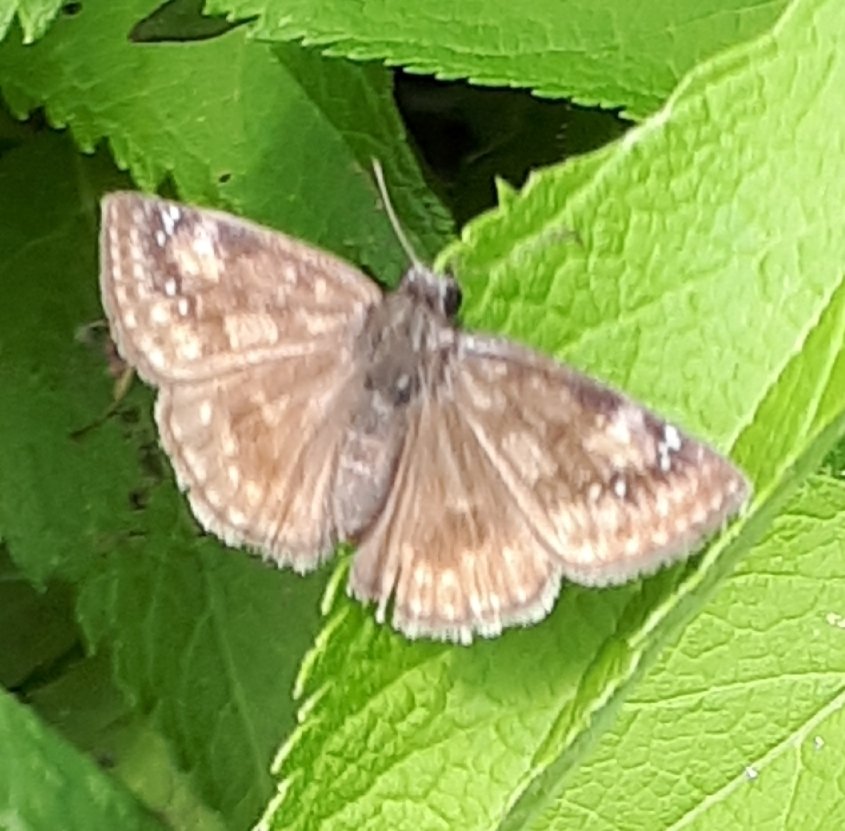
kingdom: Animalia
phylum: Arthropoda
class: Insecta
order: Lepidoptera
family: Hesperiidae
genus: Gesta
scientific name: Gesta
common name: Wild Indigo Duskywing
